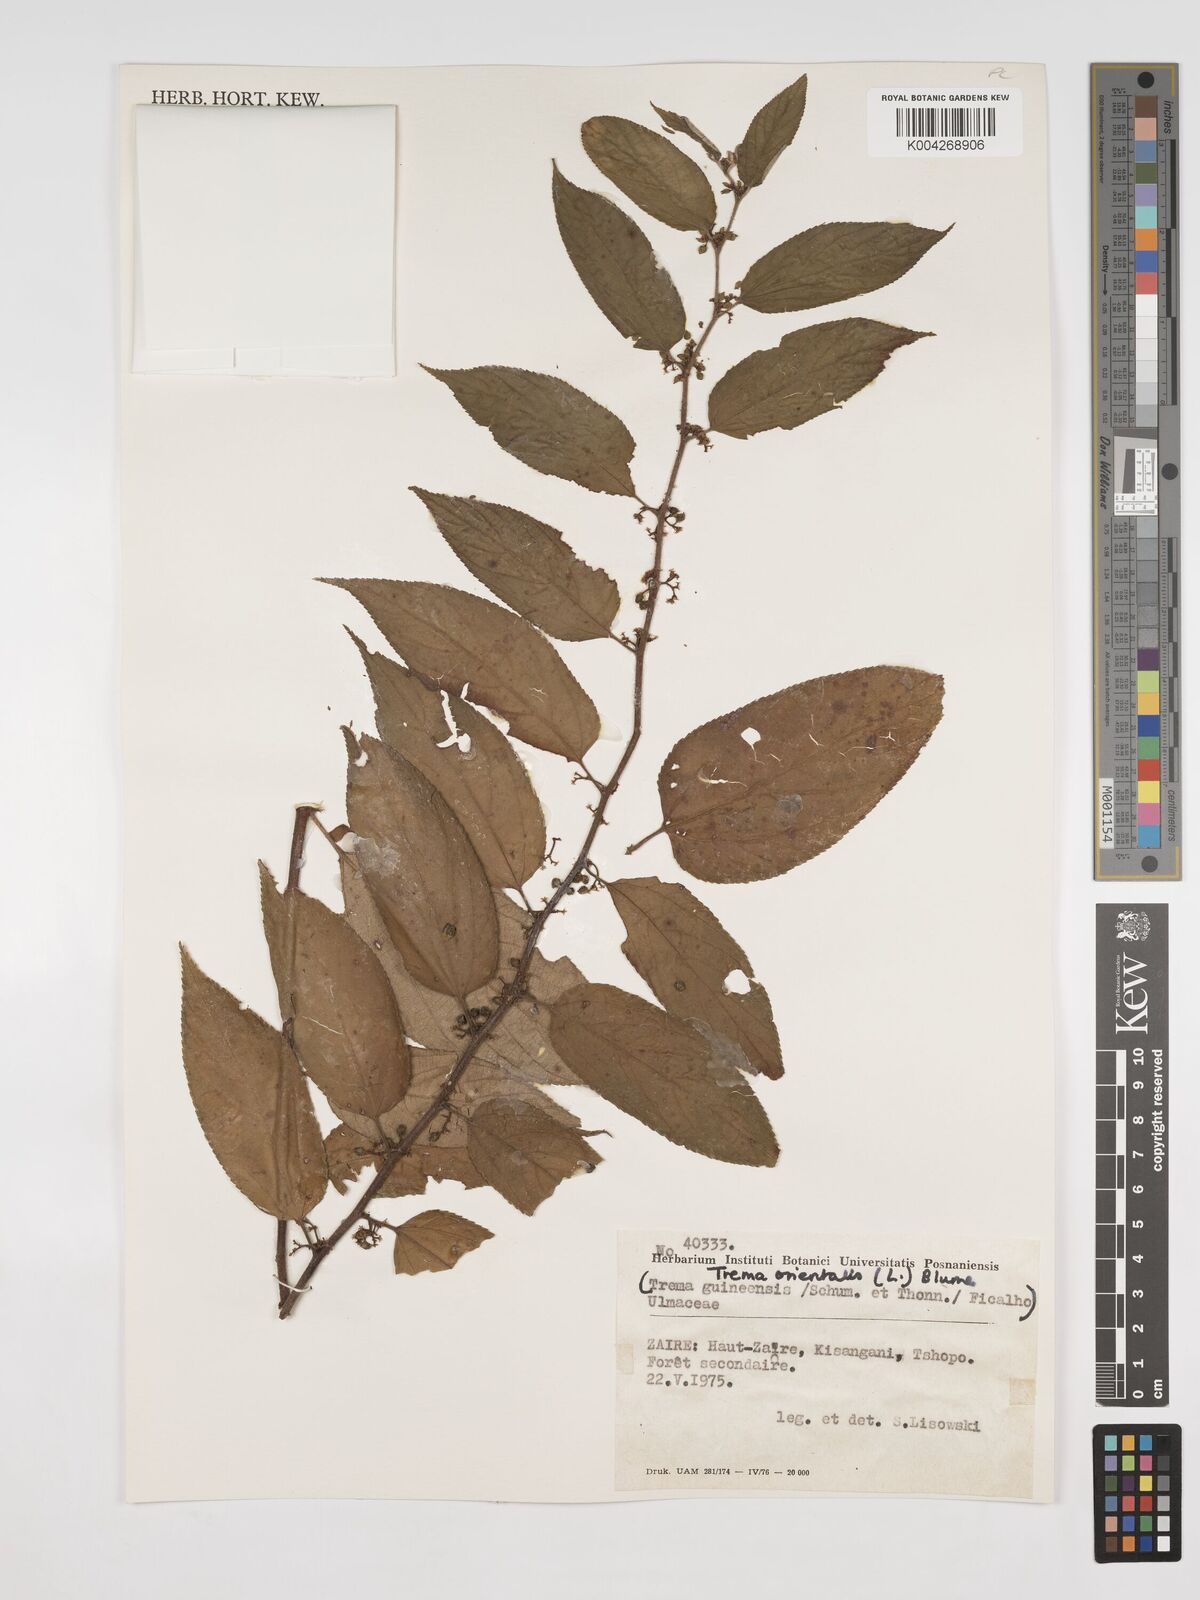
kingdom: Plantae
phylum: Tracheophyta
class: Magnoliopsida
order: Rosales
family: Cannabaceae
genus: Trema
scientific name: Trema orientale
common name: Indian charcoal tree
